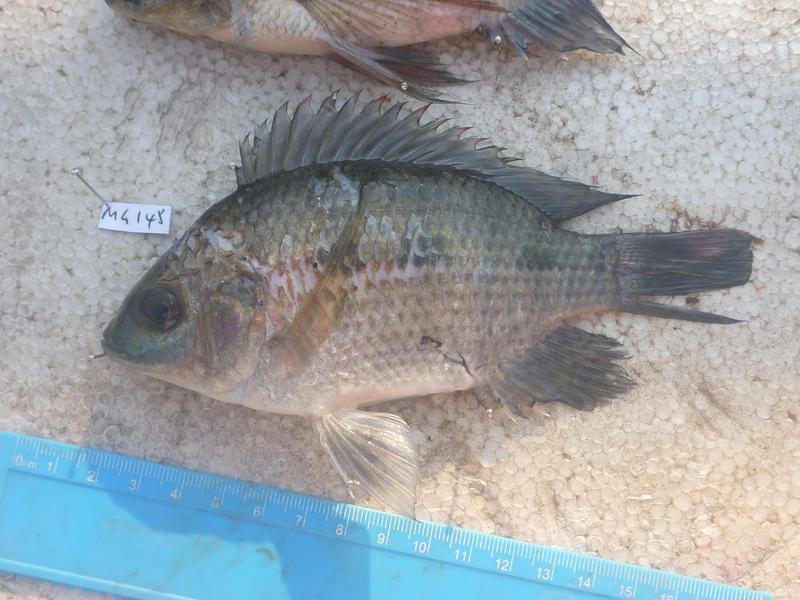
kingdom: Animalia
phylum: Chordata
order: Perciformes
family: Cichlidae
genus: Oreochromis
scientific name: Oreochromis upembae
